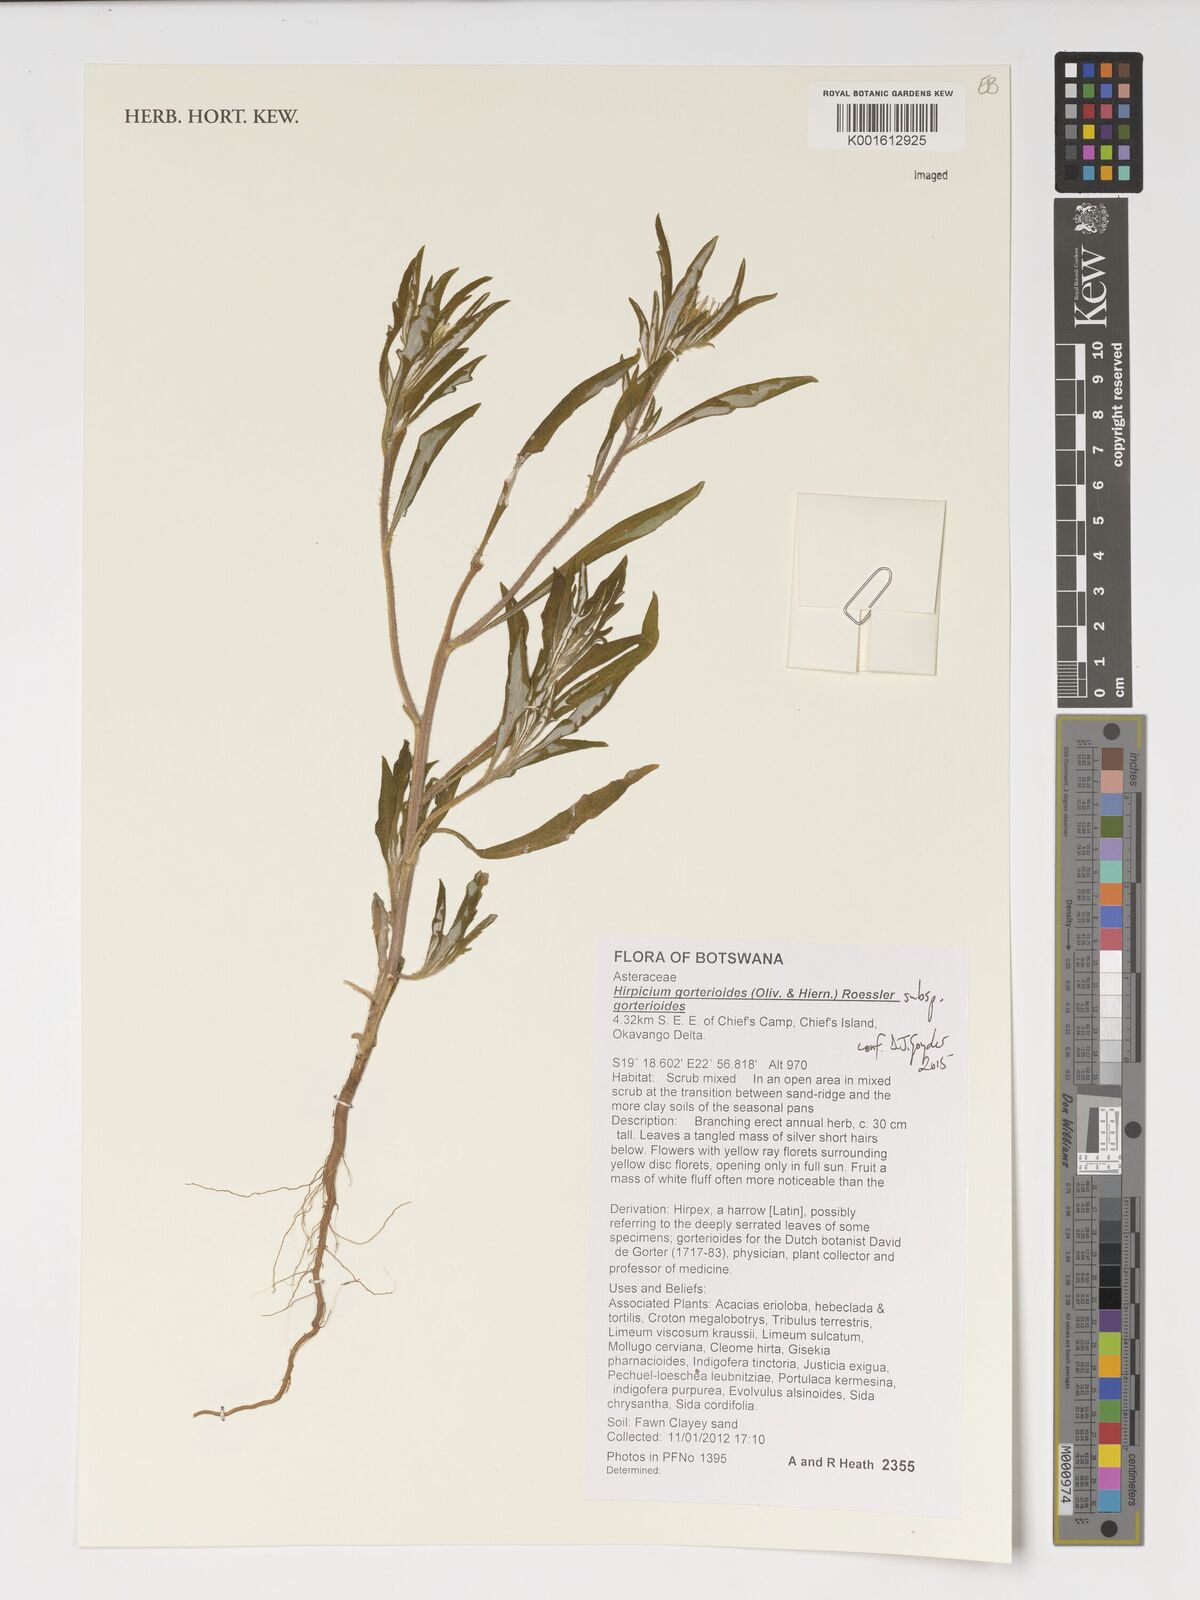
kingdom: Plantae
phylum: Tracheophyta
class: Magnoliopsida
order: Asterales
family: Asteraceae
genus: Roessleria
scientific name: Roessleria gorterioides
